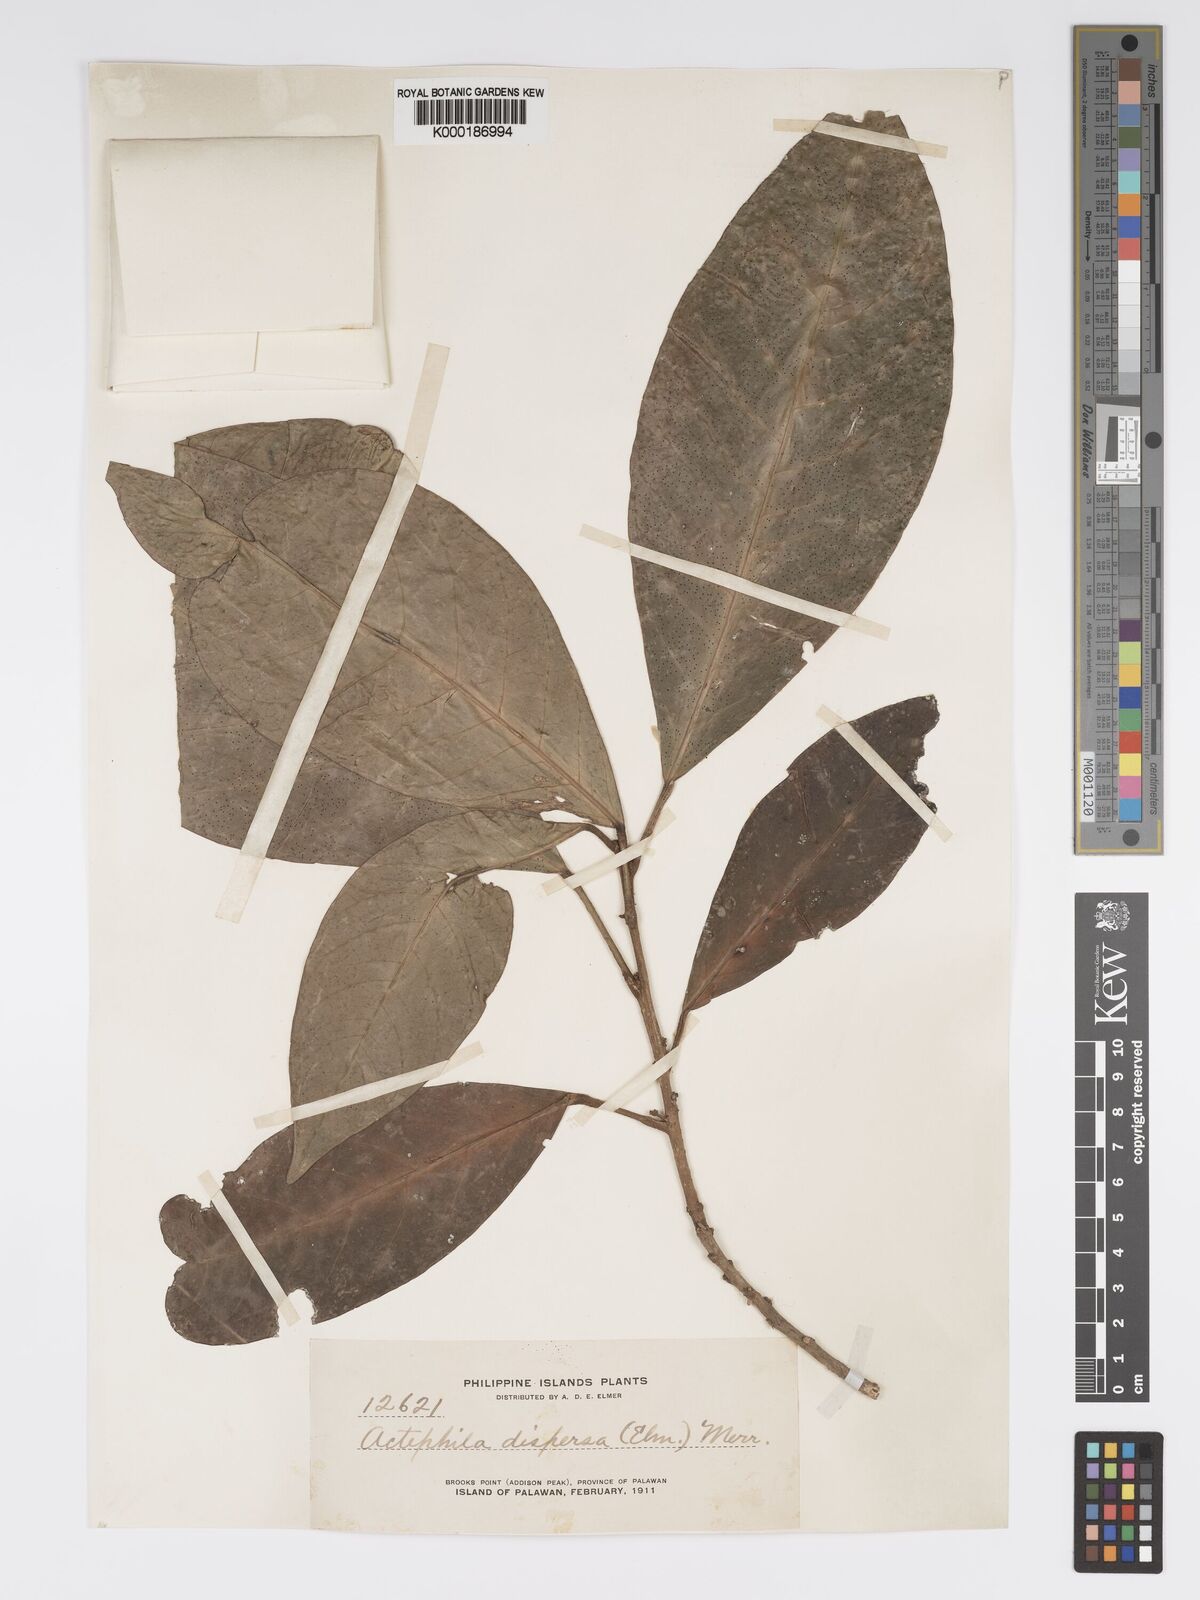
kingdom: Plantae
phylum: Tracheophyta
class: Magnoliopsida
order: Malpighiales
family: Phyllanthaceae
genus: Actephila
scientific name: Actephila
